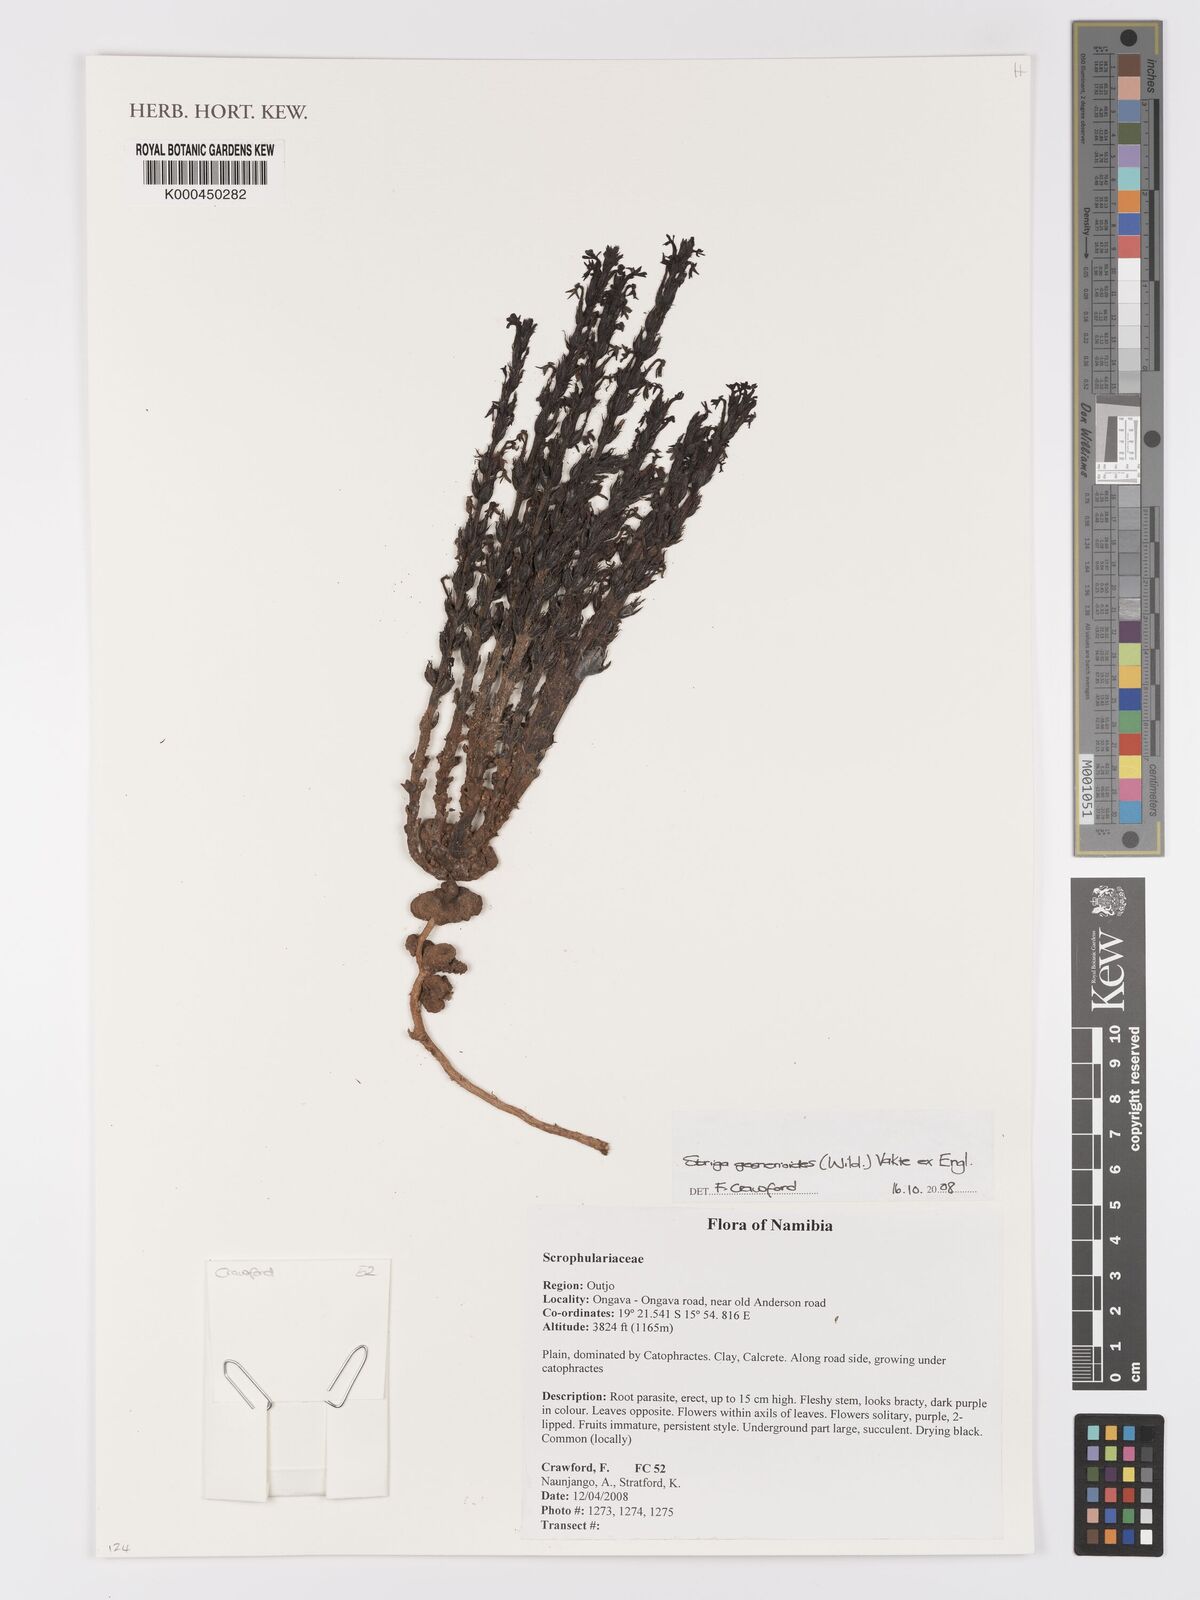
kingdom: Plantae
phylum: Tracheophyta
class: Magnoliopsida
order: Lamiales
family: Orobanchaceae
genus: Striga
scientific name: Striga
